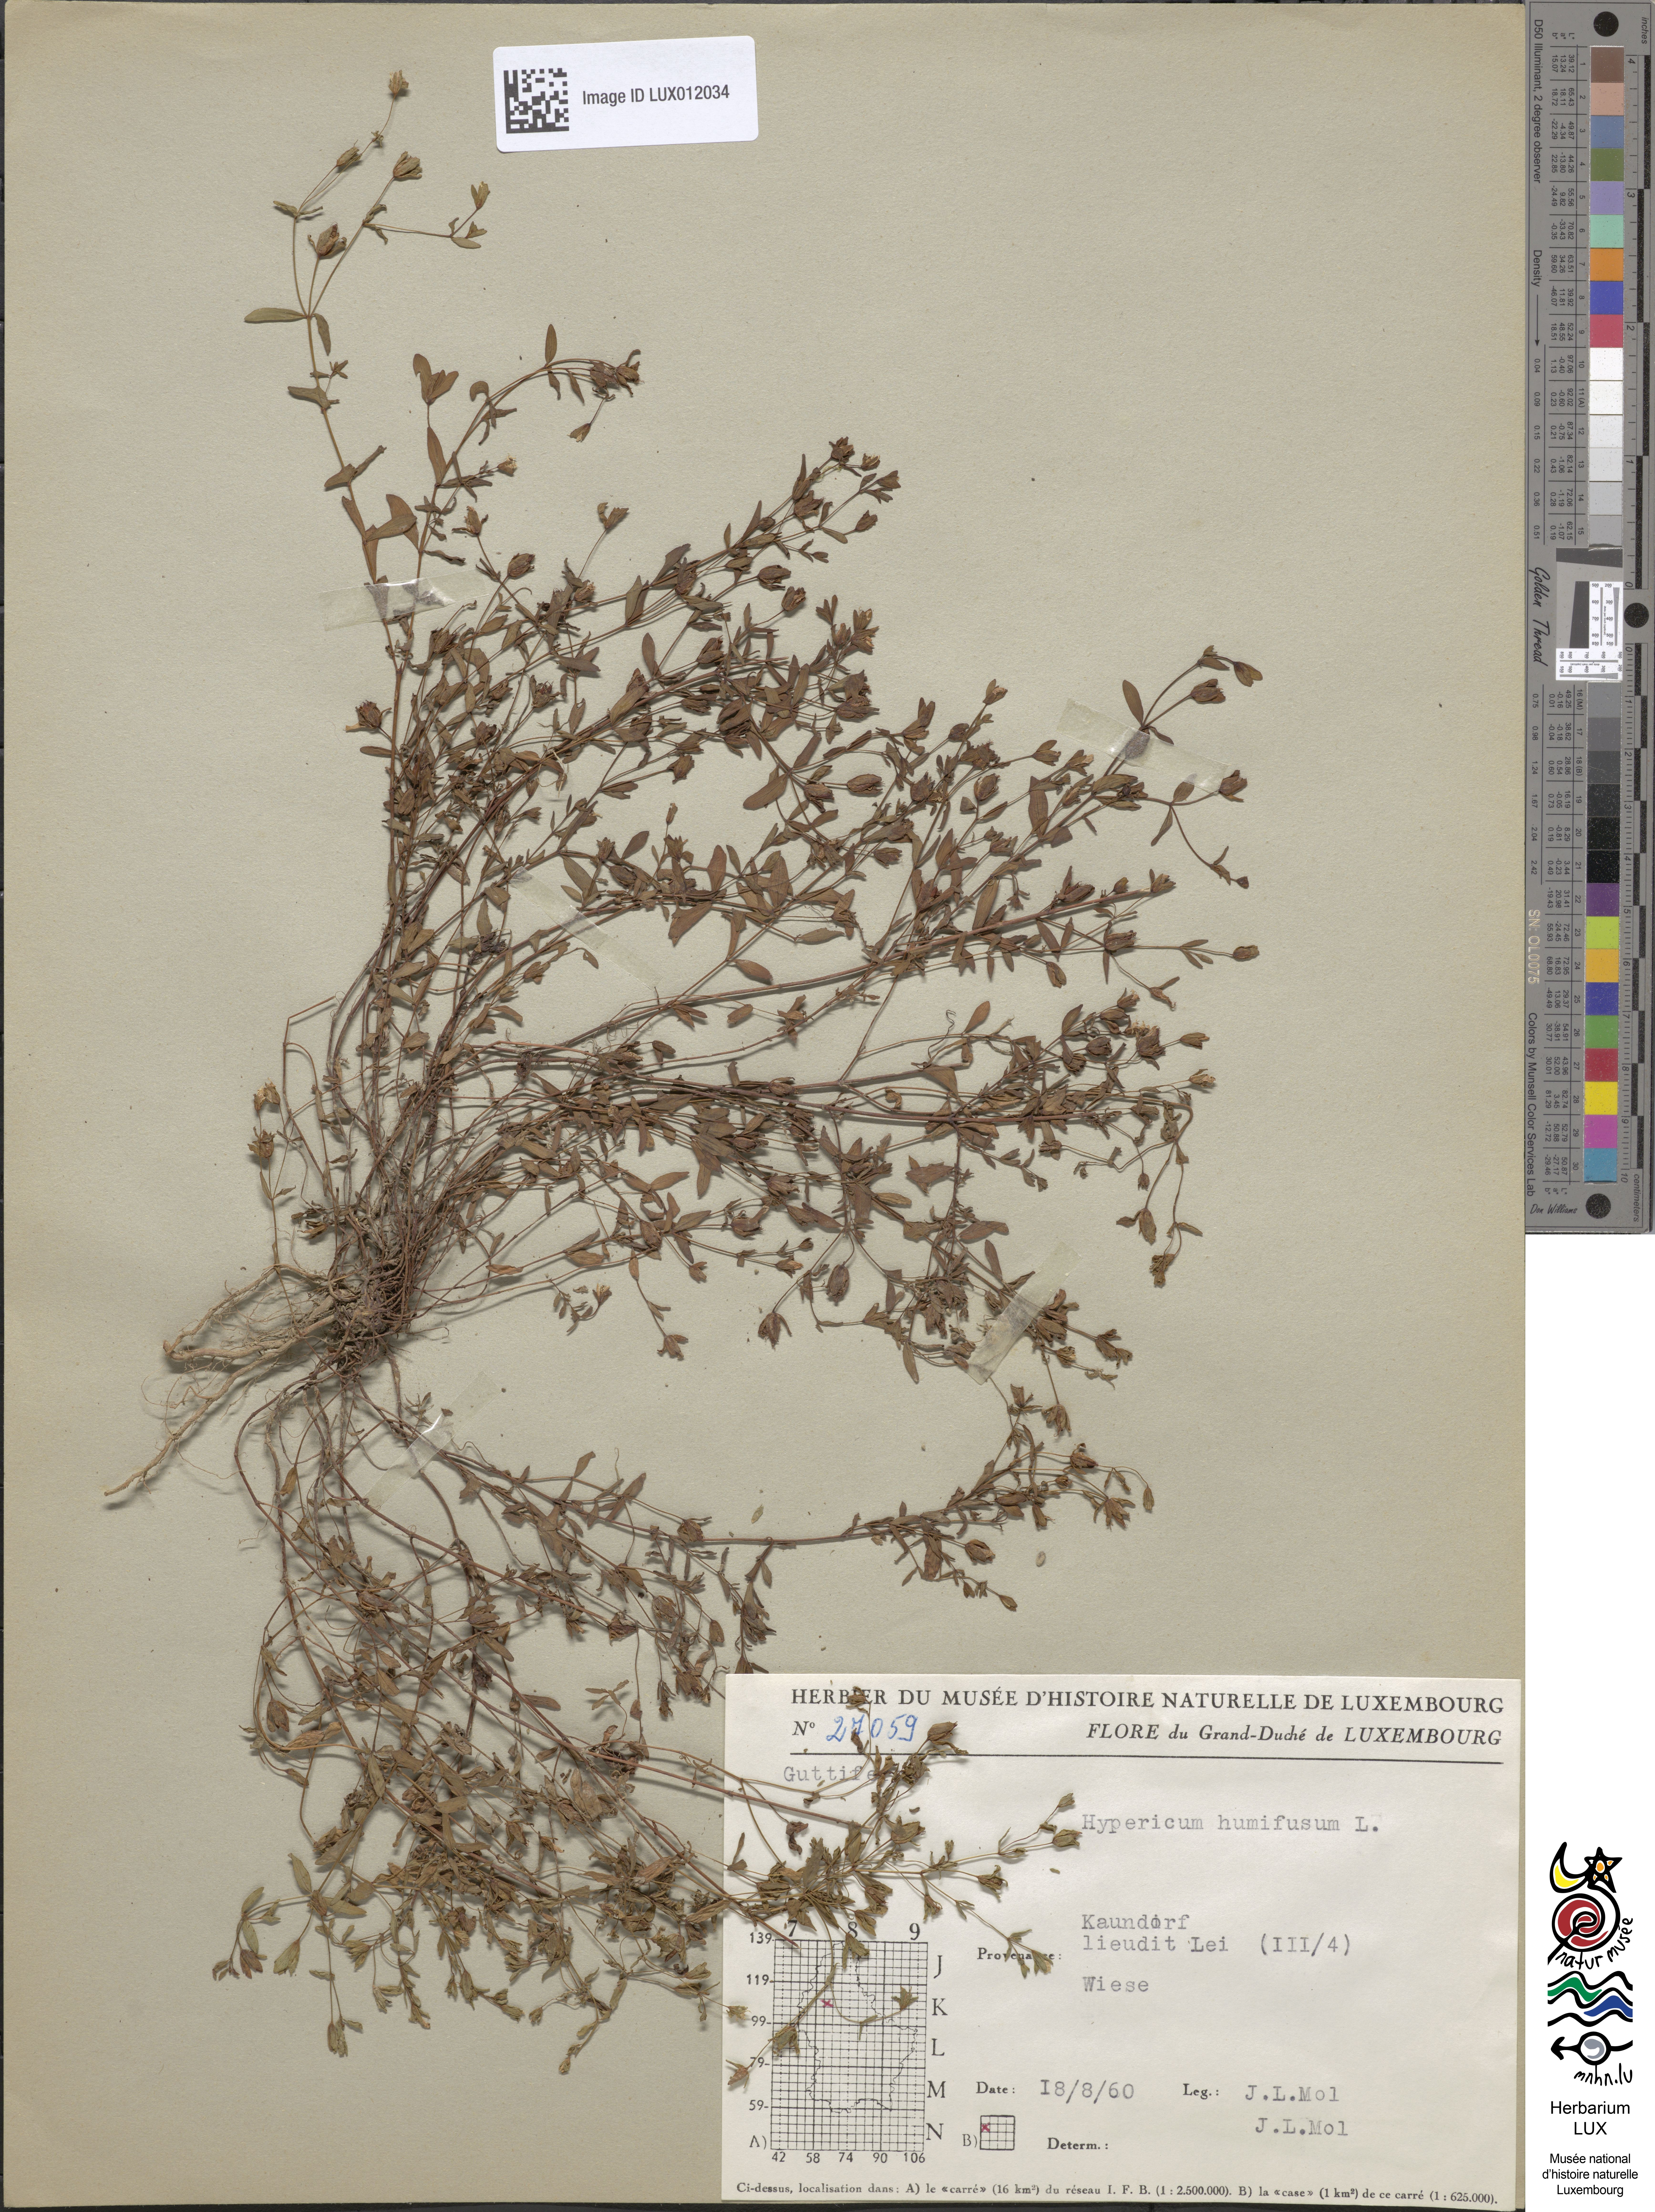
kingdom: Plantae
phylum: Tracheophyta
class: Magnoliopsida
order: Malpighiales
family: Hypericaceae
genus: Hypericum
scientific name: Hypericum humifusum
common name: Trailing st. john's-wort
